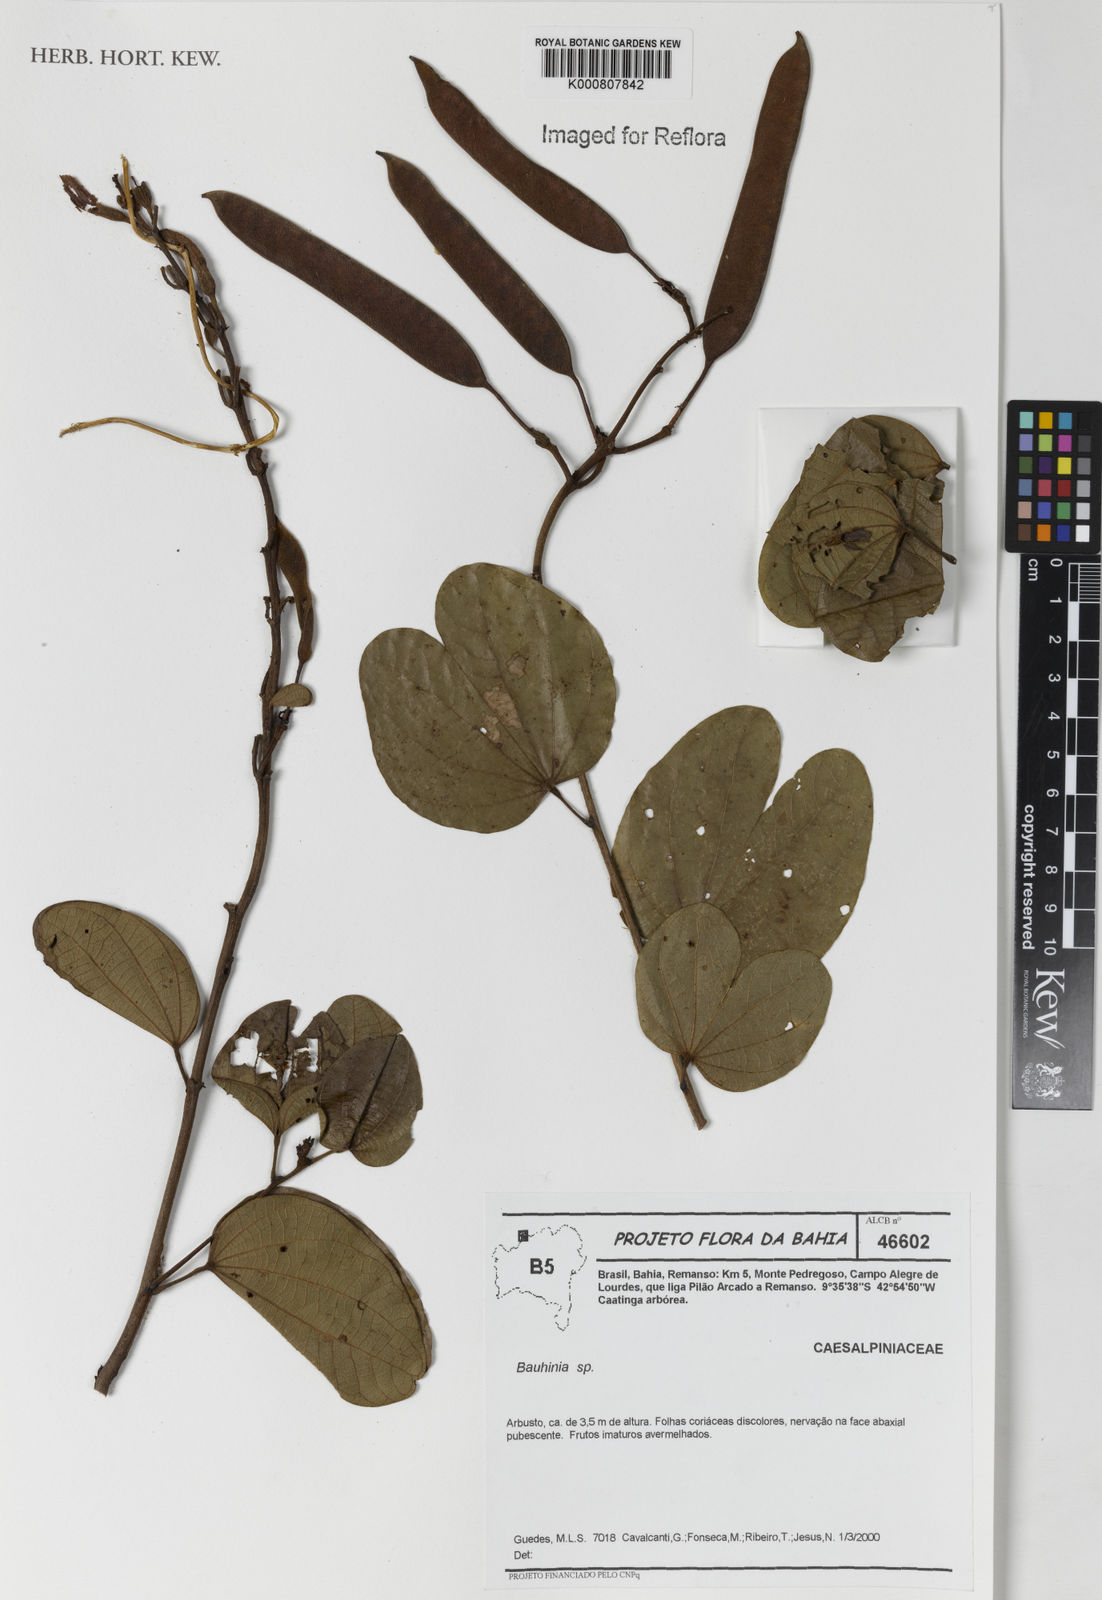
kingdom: Plantae
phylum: Tracheophyta
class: Magnoliopsida
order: Fabales
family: Fabaceae
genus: Bauhinia
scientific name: Bauhinia
